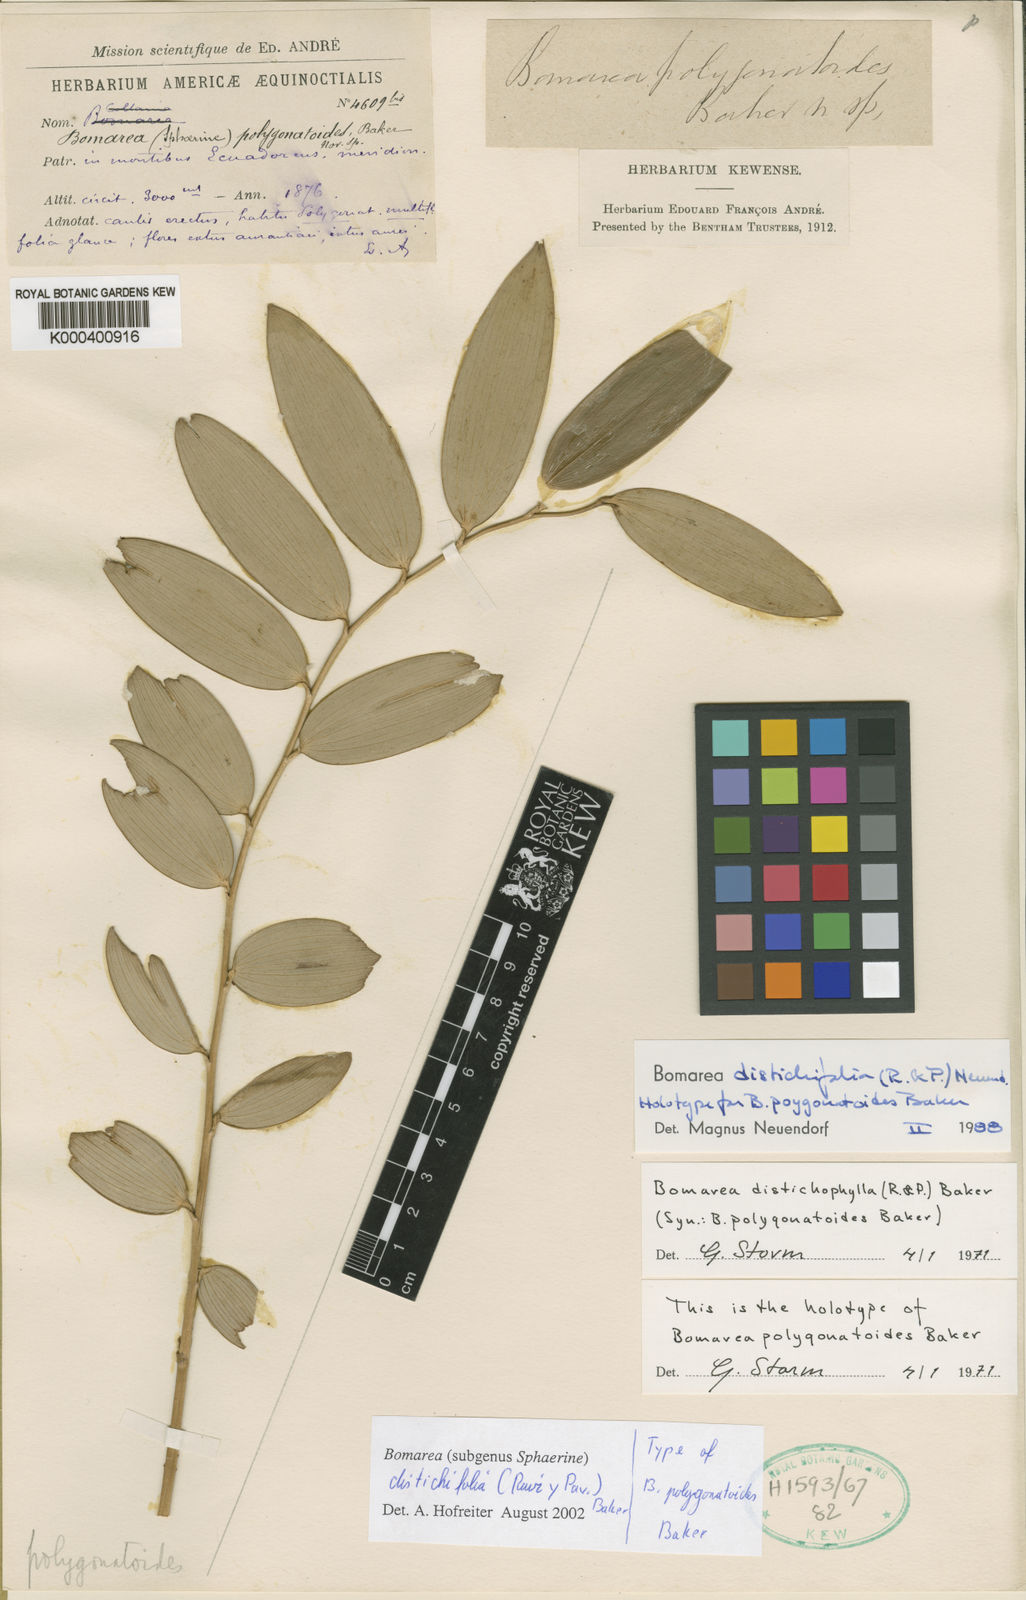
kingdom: Plantae
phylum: Tracheophyta
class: Liliopsida
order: Liliales
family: Alstroemeriaceae
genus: Bomarea
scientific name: Bomarea distichifolia
